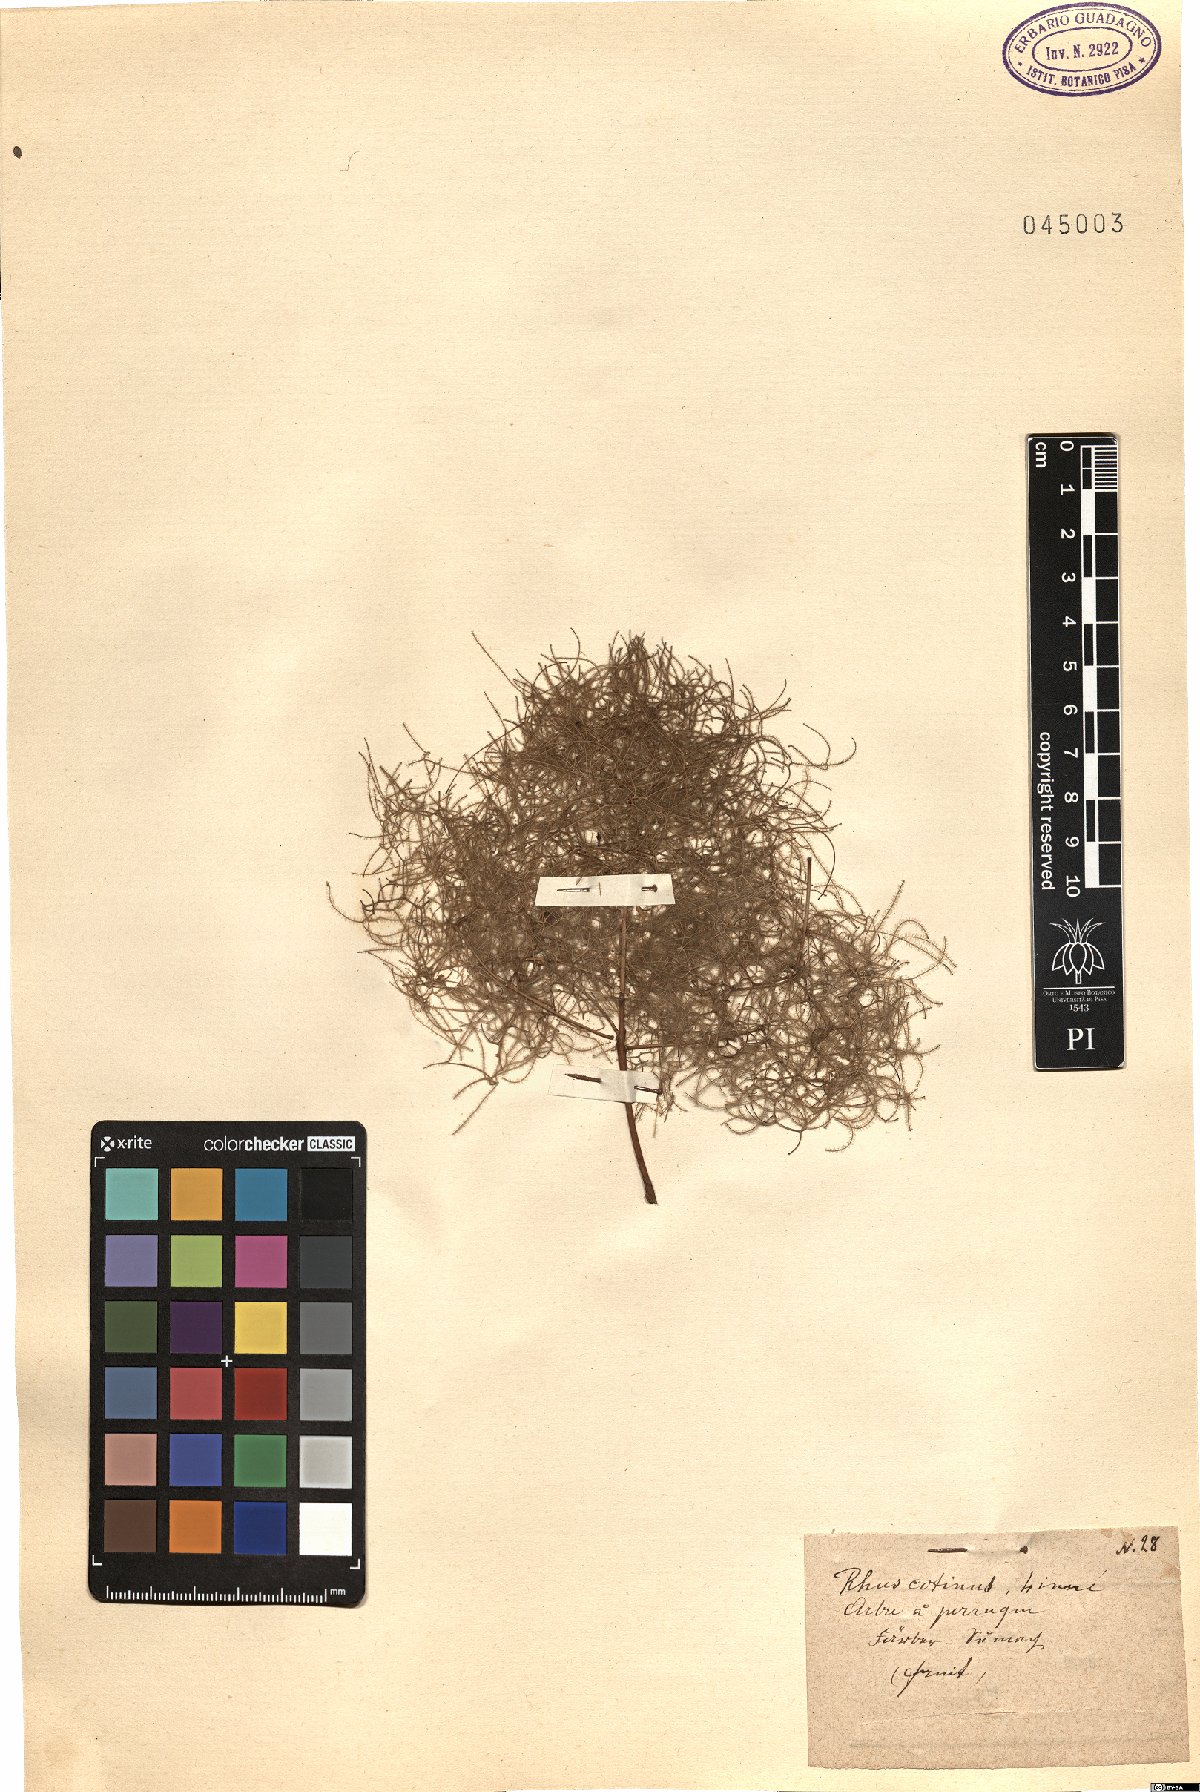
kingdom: Plantae
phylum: Tracheophyta
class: Magnoliopsida
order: Sapindales
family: Anacardiaceae
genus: Cotinus
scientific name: Cotinus coggygria
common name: Smoke-tree
